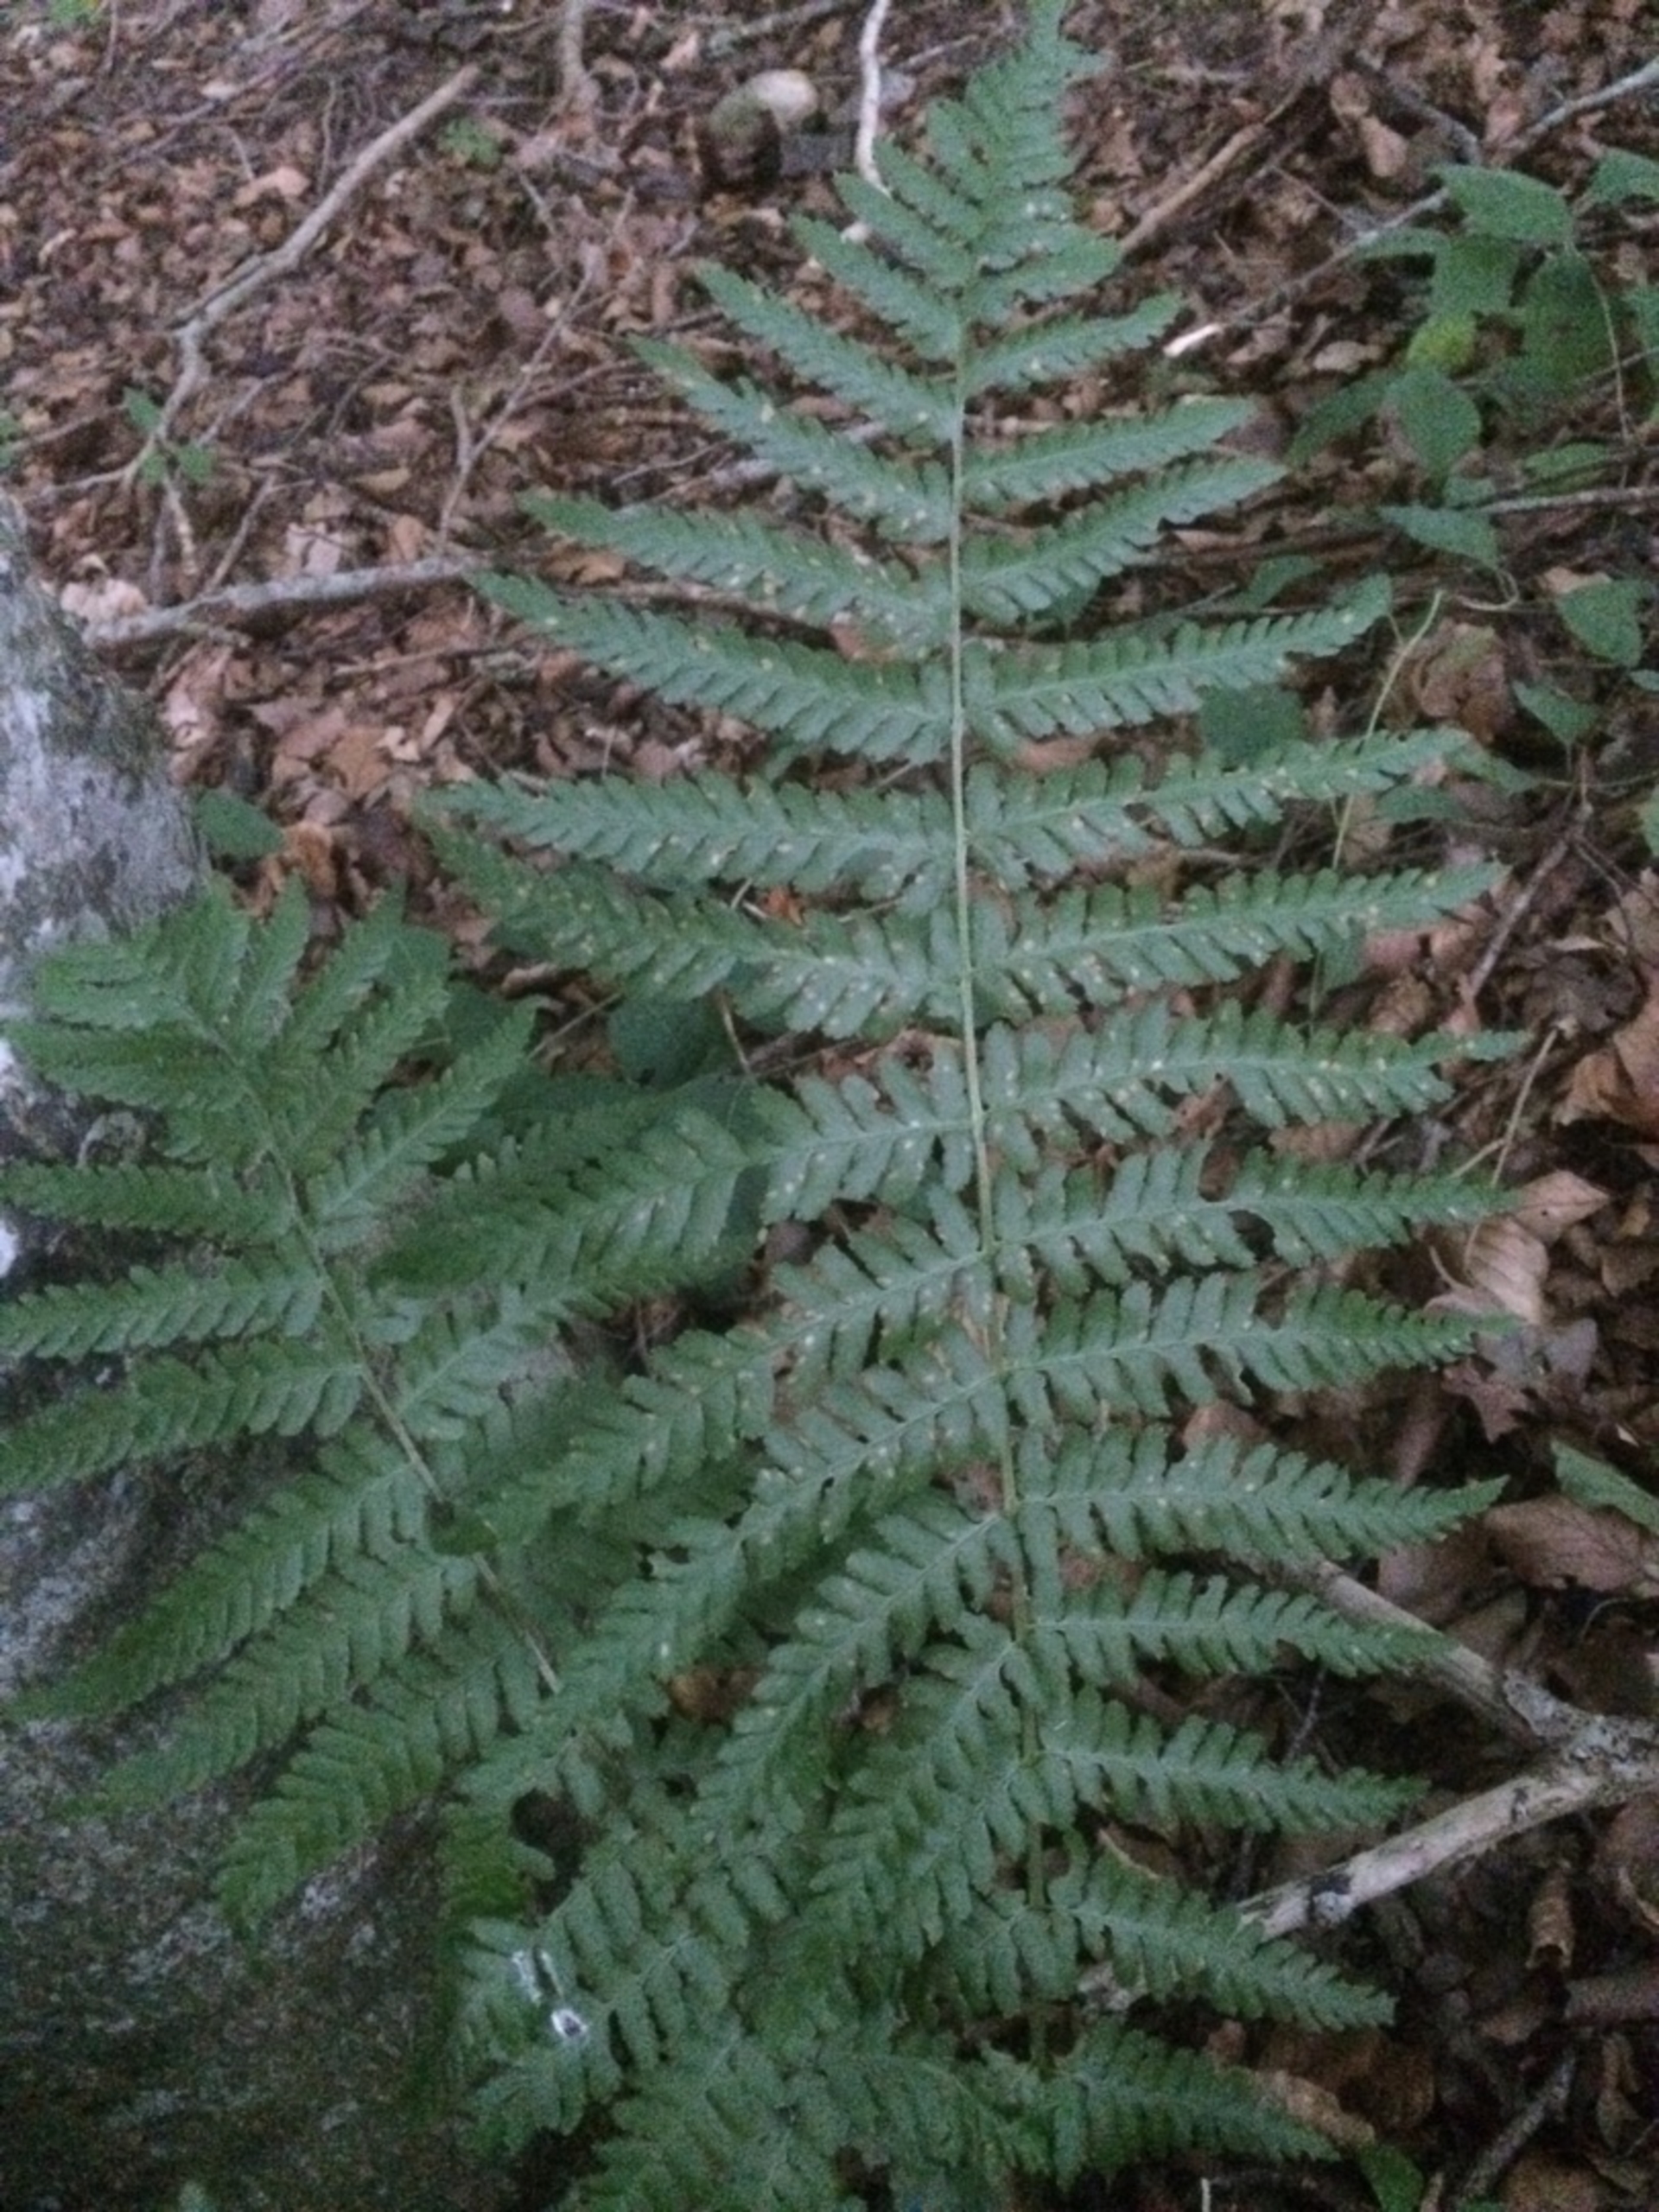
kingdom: Plantae
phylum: Tracheophyta
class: Polypodiopsida
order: Polypodiales
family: Dryopteridaceae
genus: Dryopteris
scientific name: Dryopteris filix-mas
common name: Almindelig mangeløv
